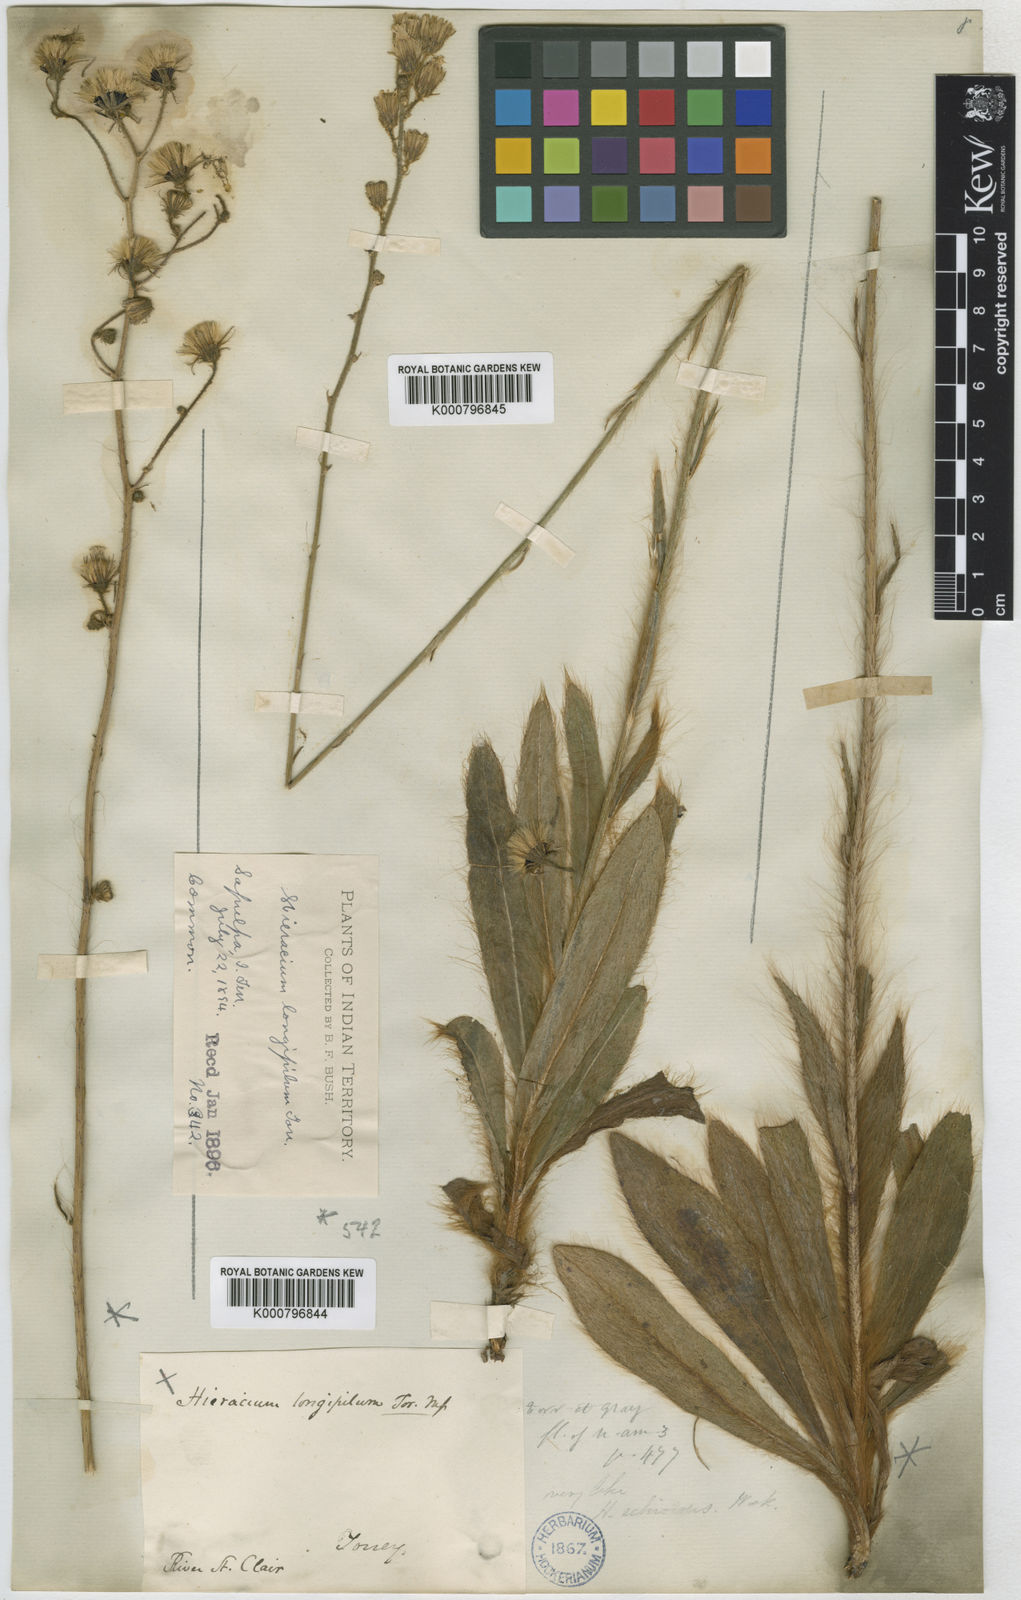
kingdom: Plantae
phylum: Tracheophyta
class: Magnoliopsida
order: Asterales
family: Asteraceae
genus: Hieracium
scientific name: Hieracium longipilum
